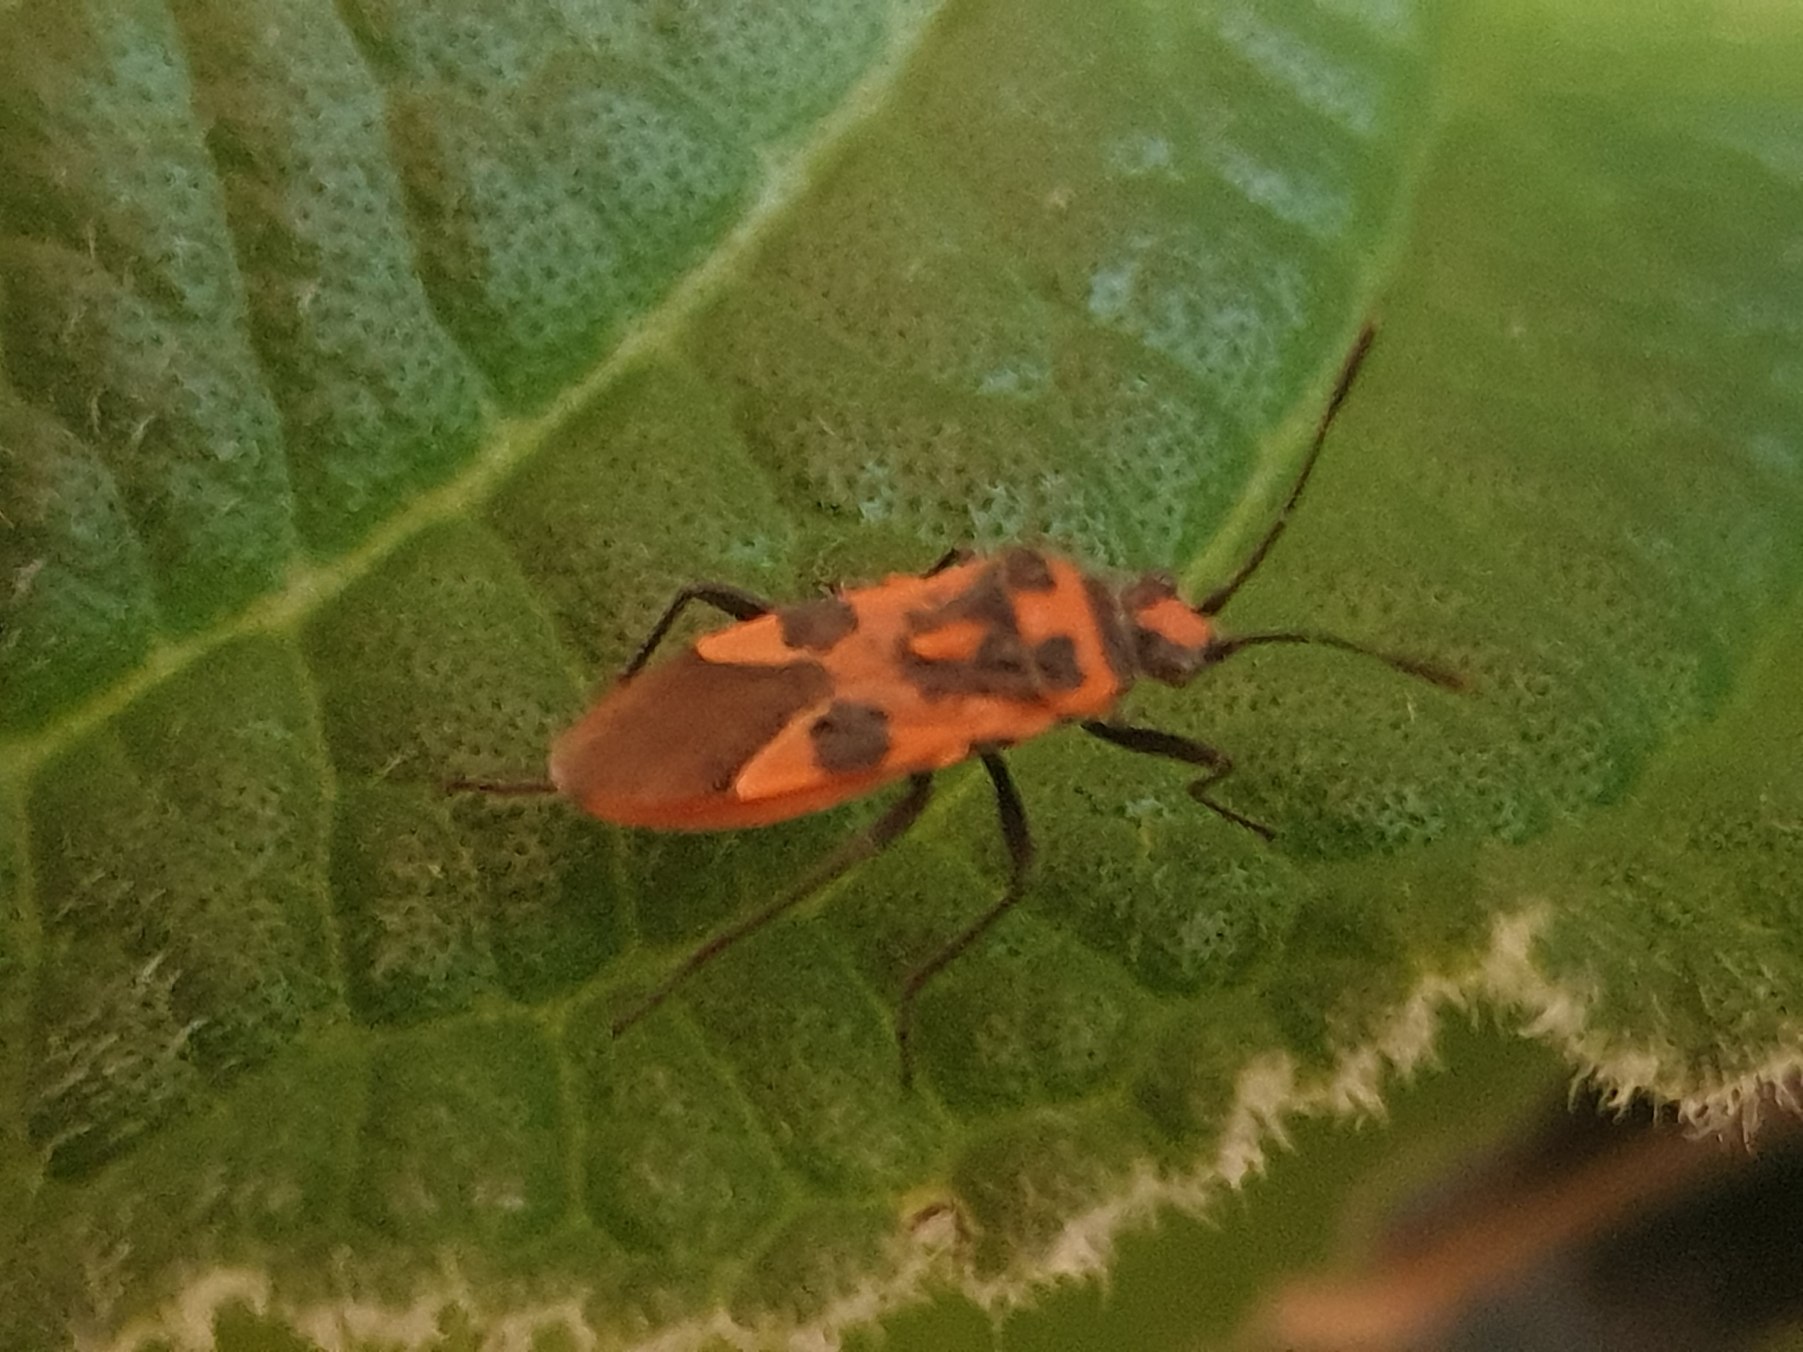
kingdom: Animalia
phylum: Arthropoda
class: Insecta
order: Hemiptera
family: Rhopalidae
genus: Corizus
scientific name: Corizus hyoscyami
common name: Rød kanttæge
